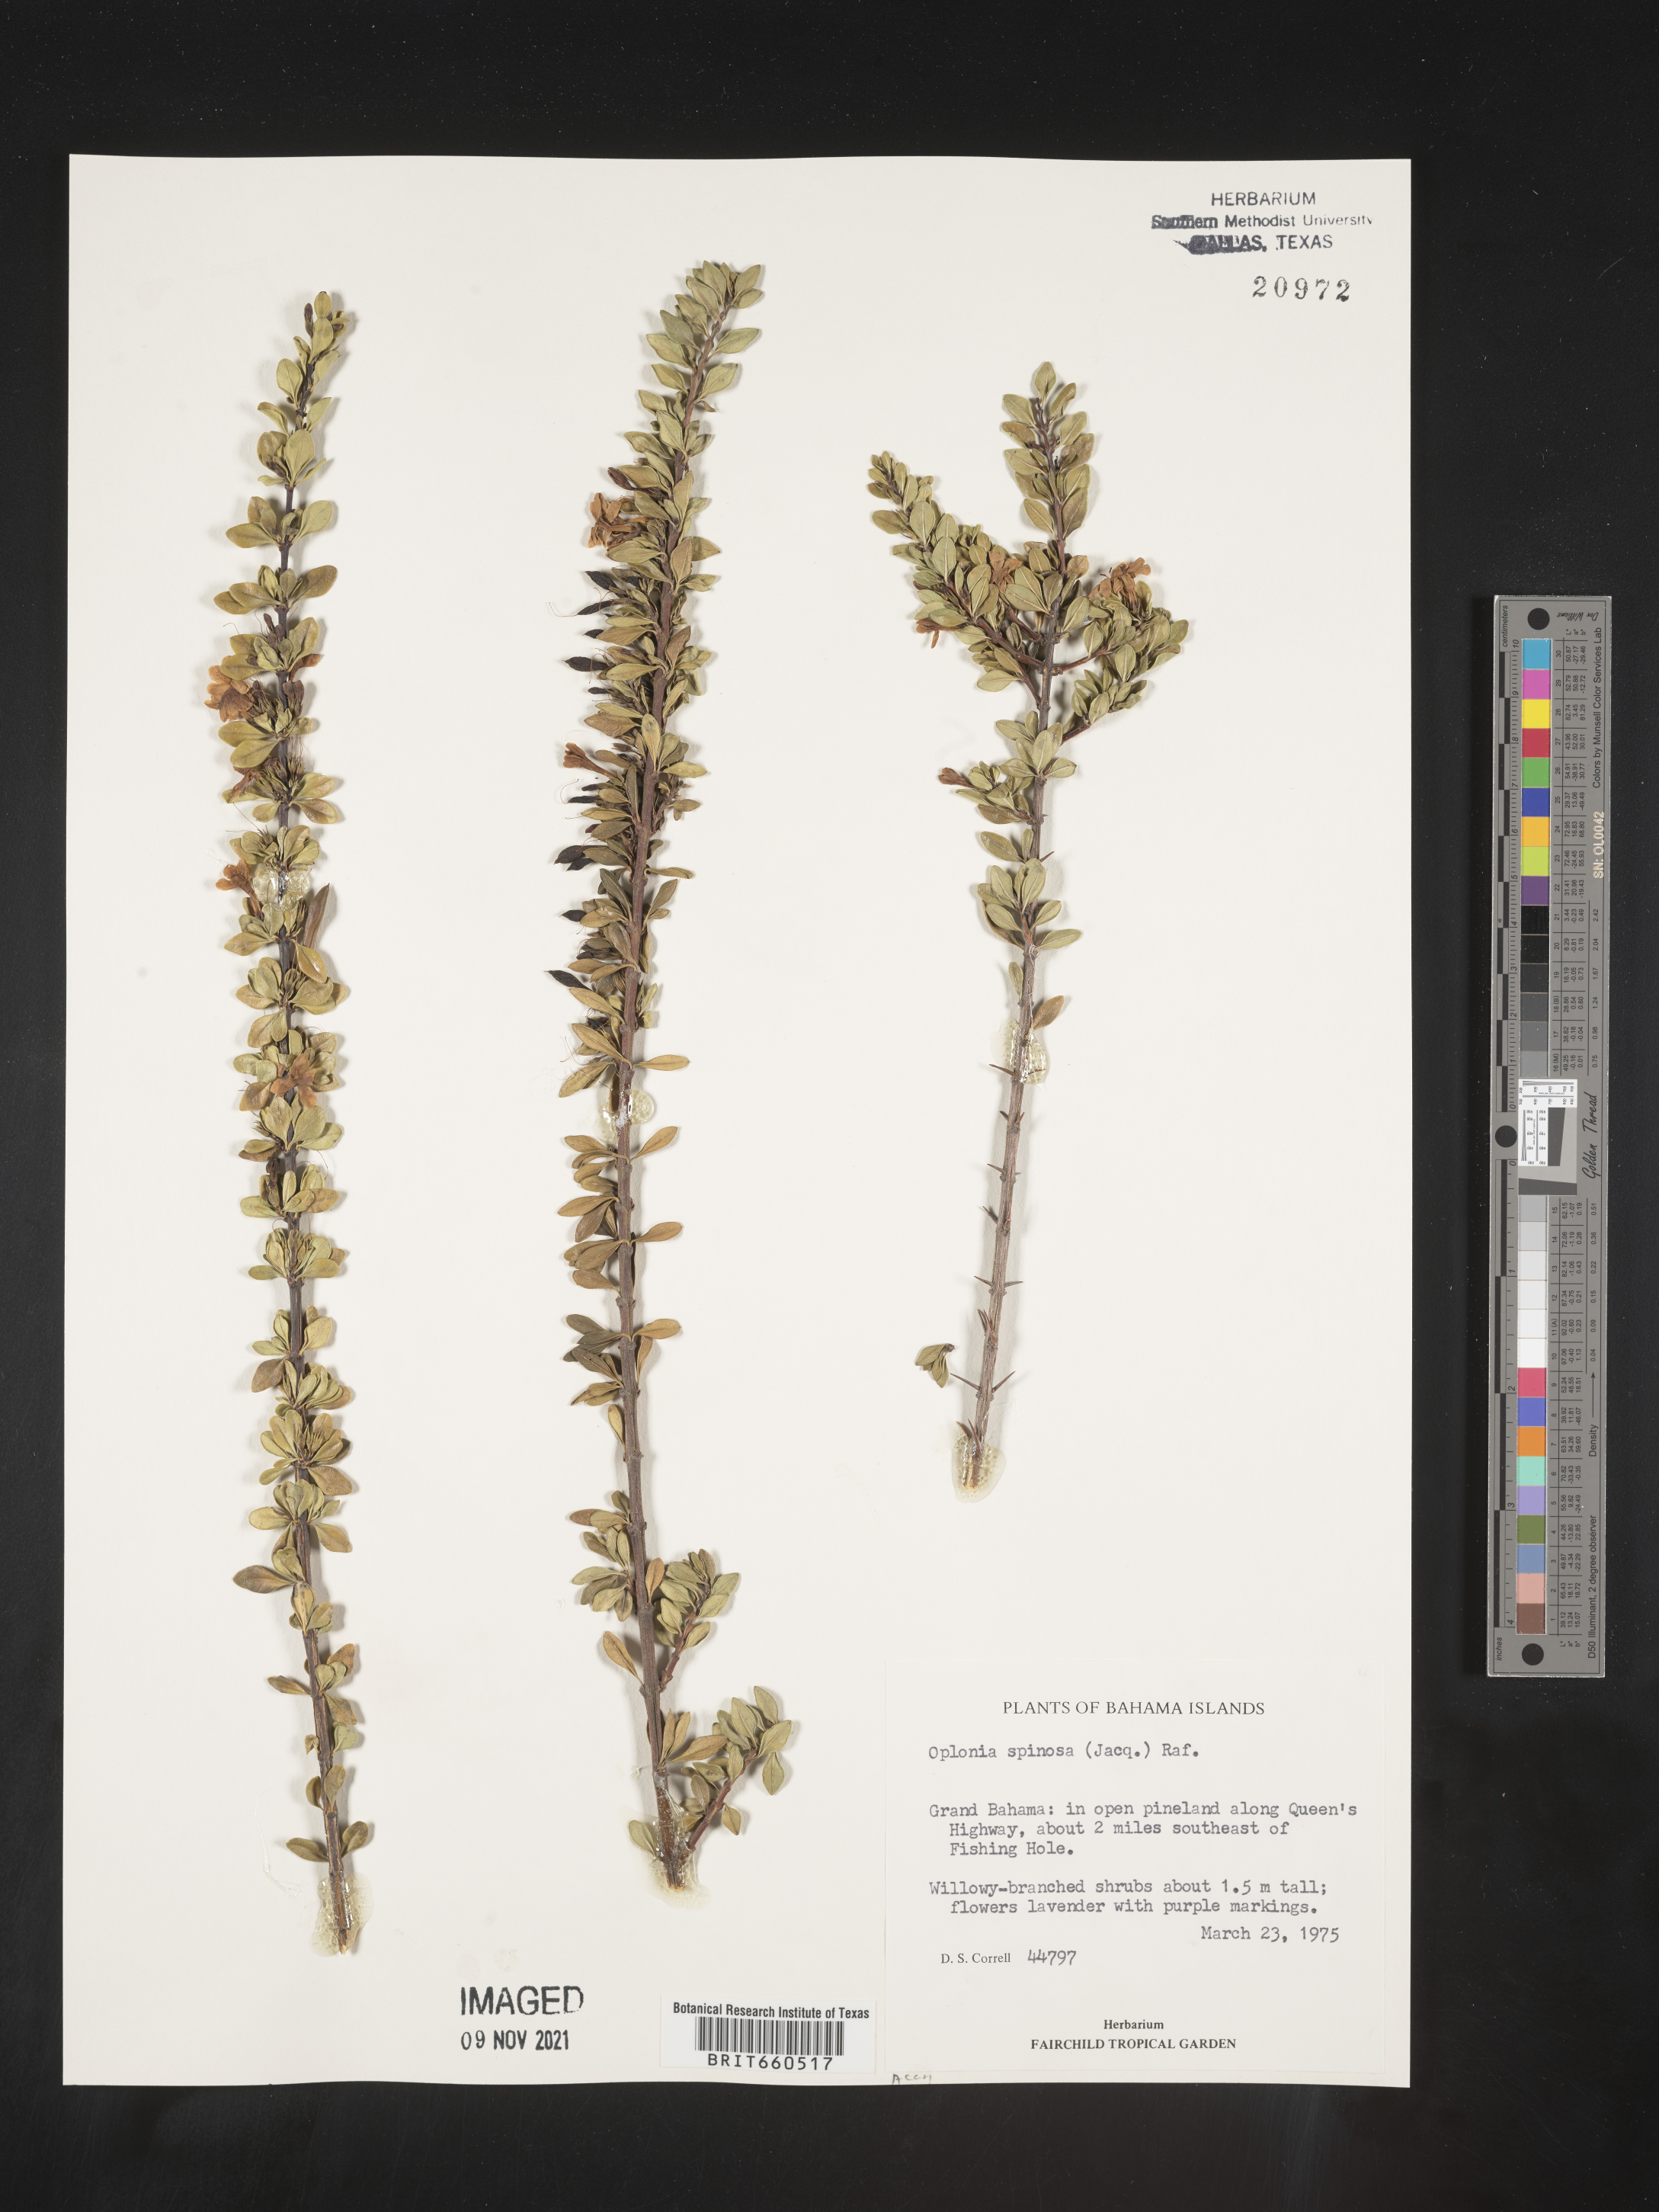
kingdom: Plantae
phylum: Tracheophyta
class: Magnoliopsida
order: Lamiales
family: Acanthaceae
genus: Oplonia
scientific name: Oplonia
